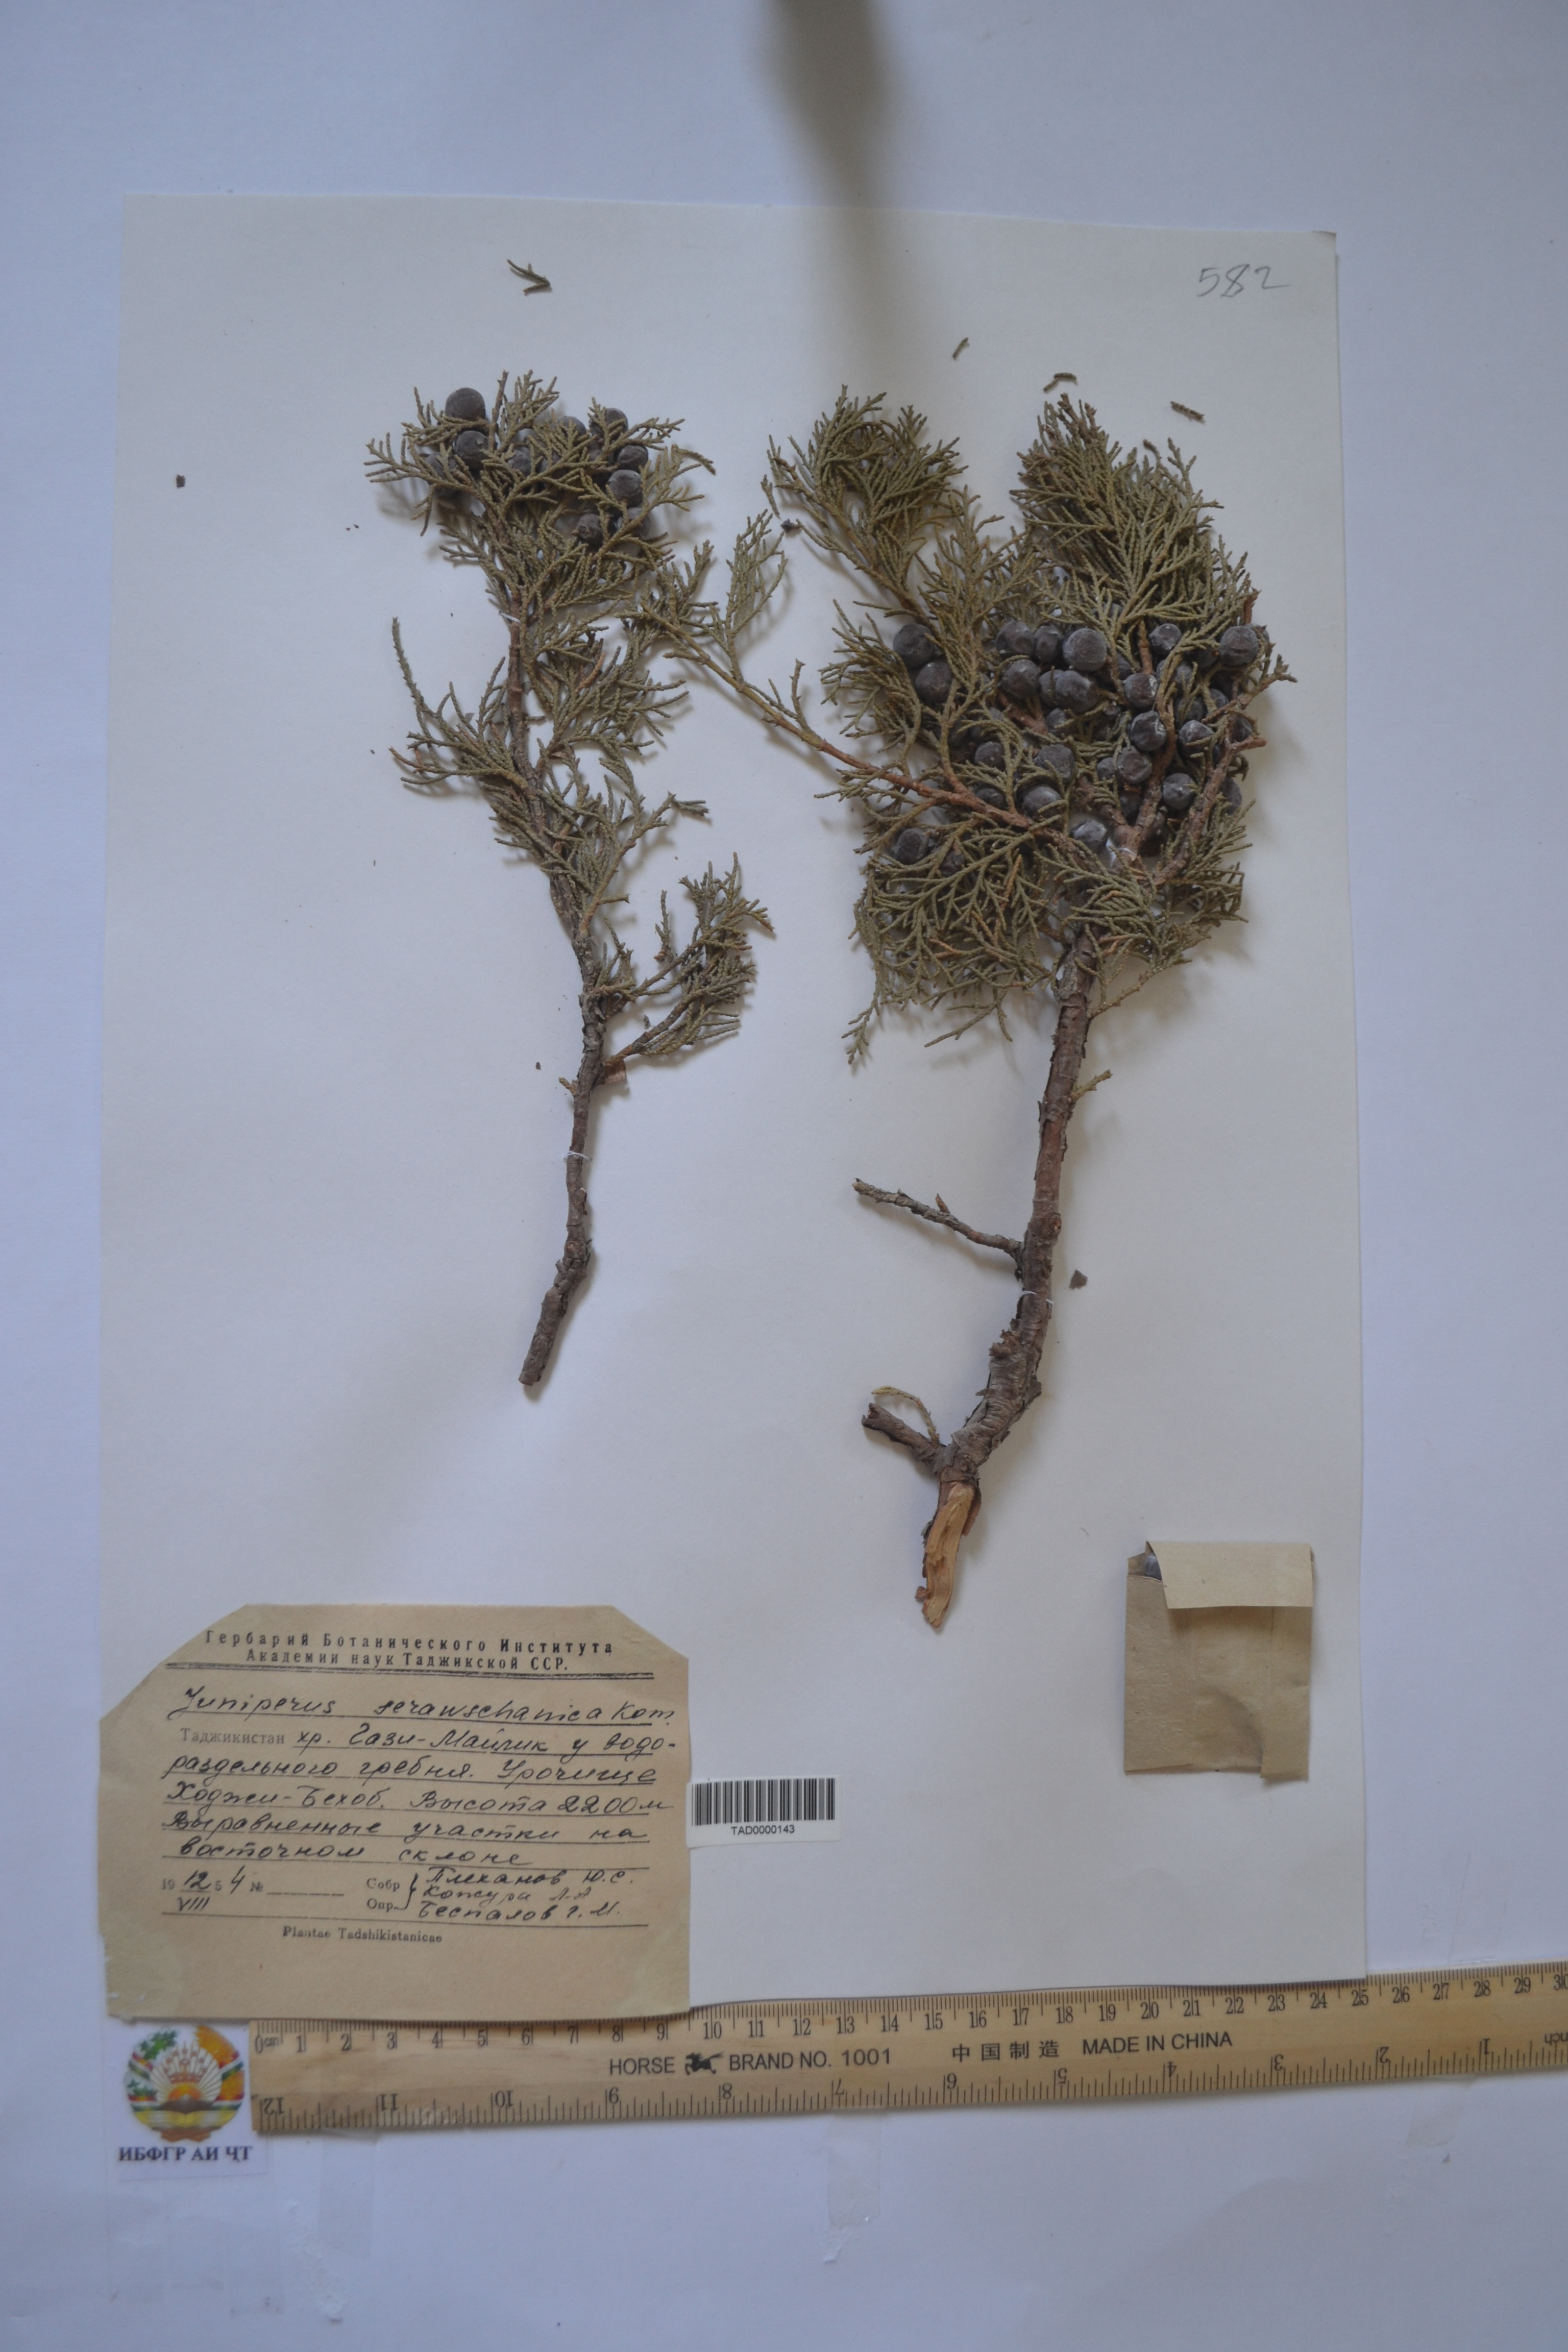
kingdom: Plantae
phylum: Tracheophyta
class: Pinopsida
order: Pinales
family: Cupressaceae
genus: Juniperus
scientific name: Juniperus excelsa
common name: Crimean juniper
